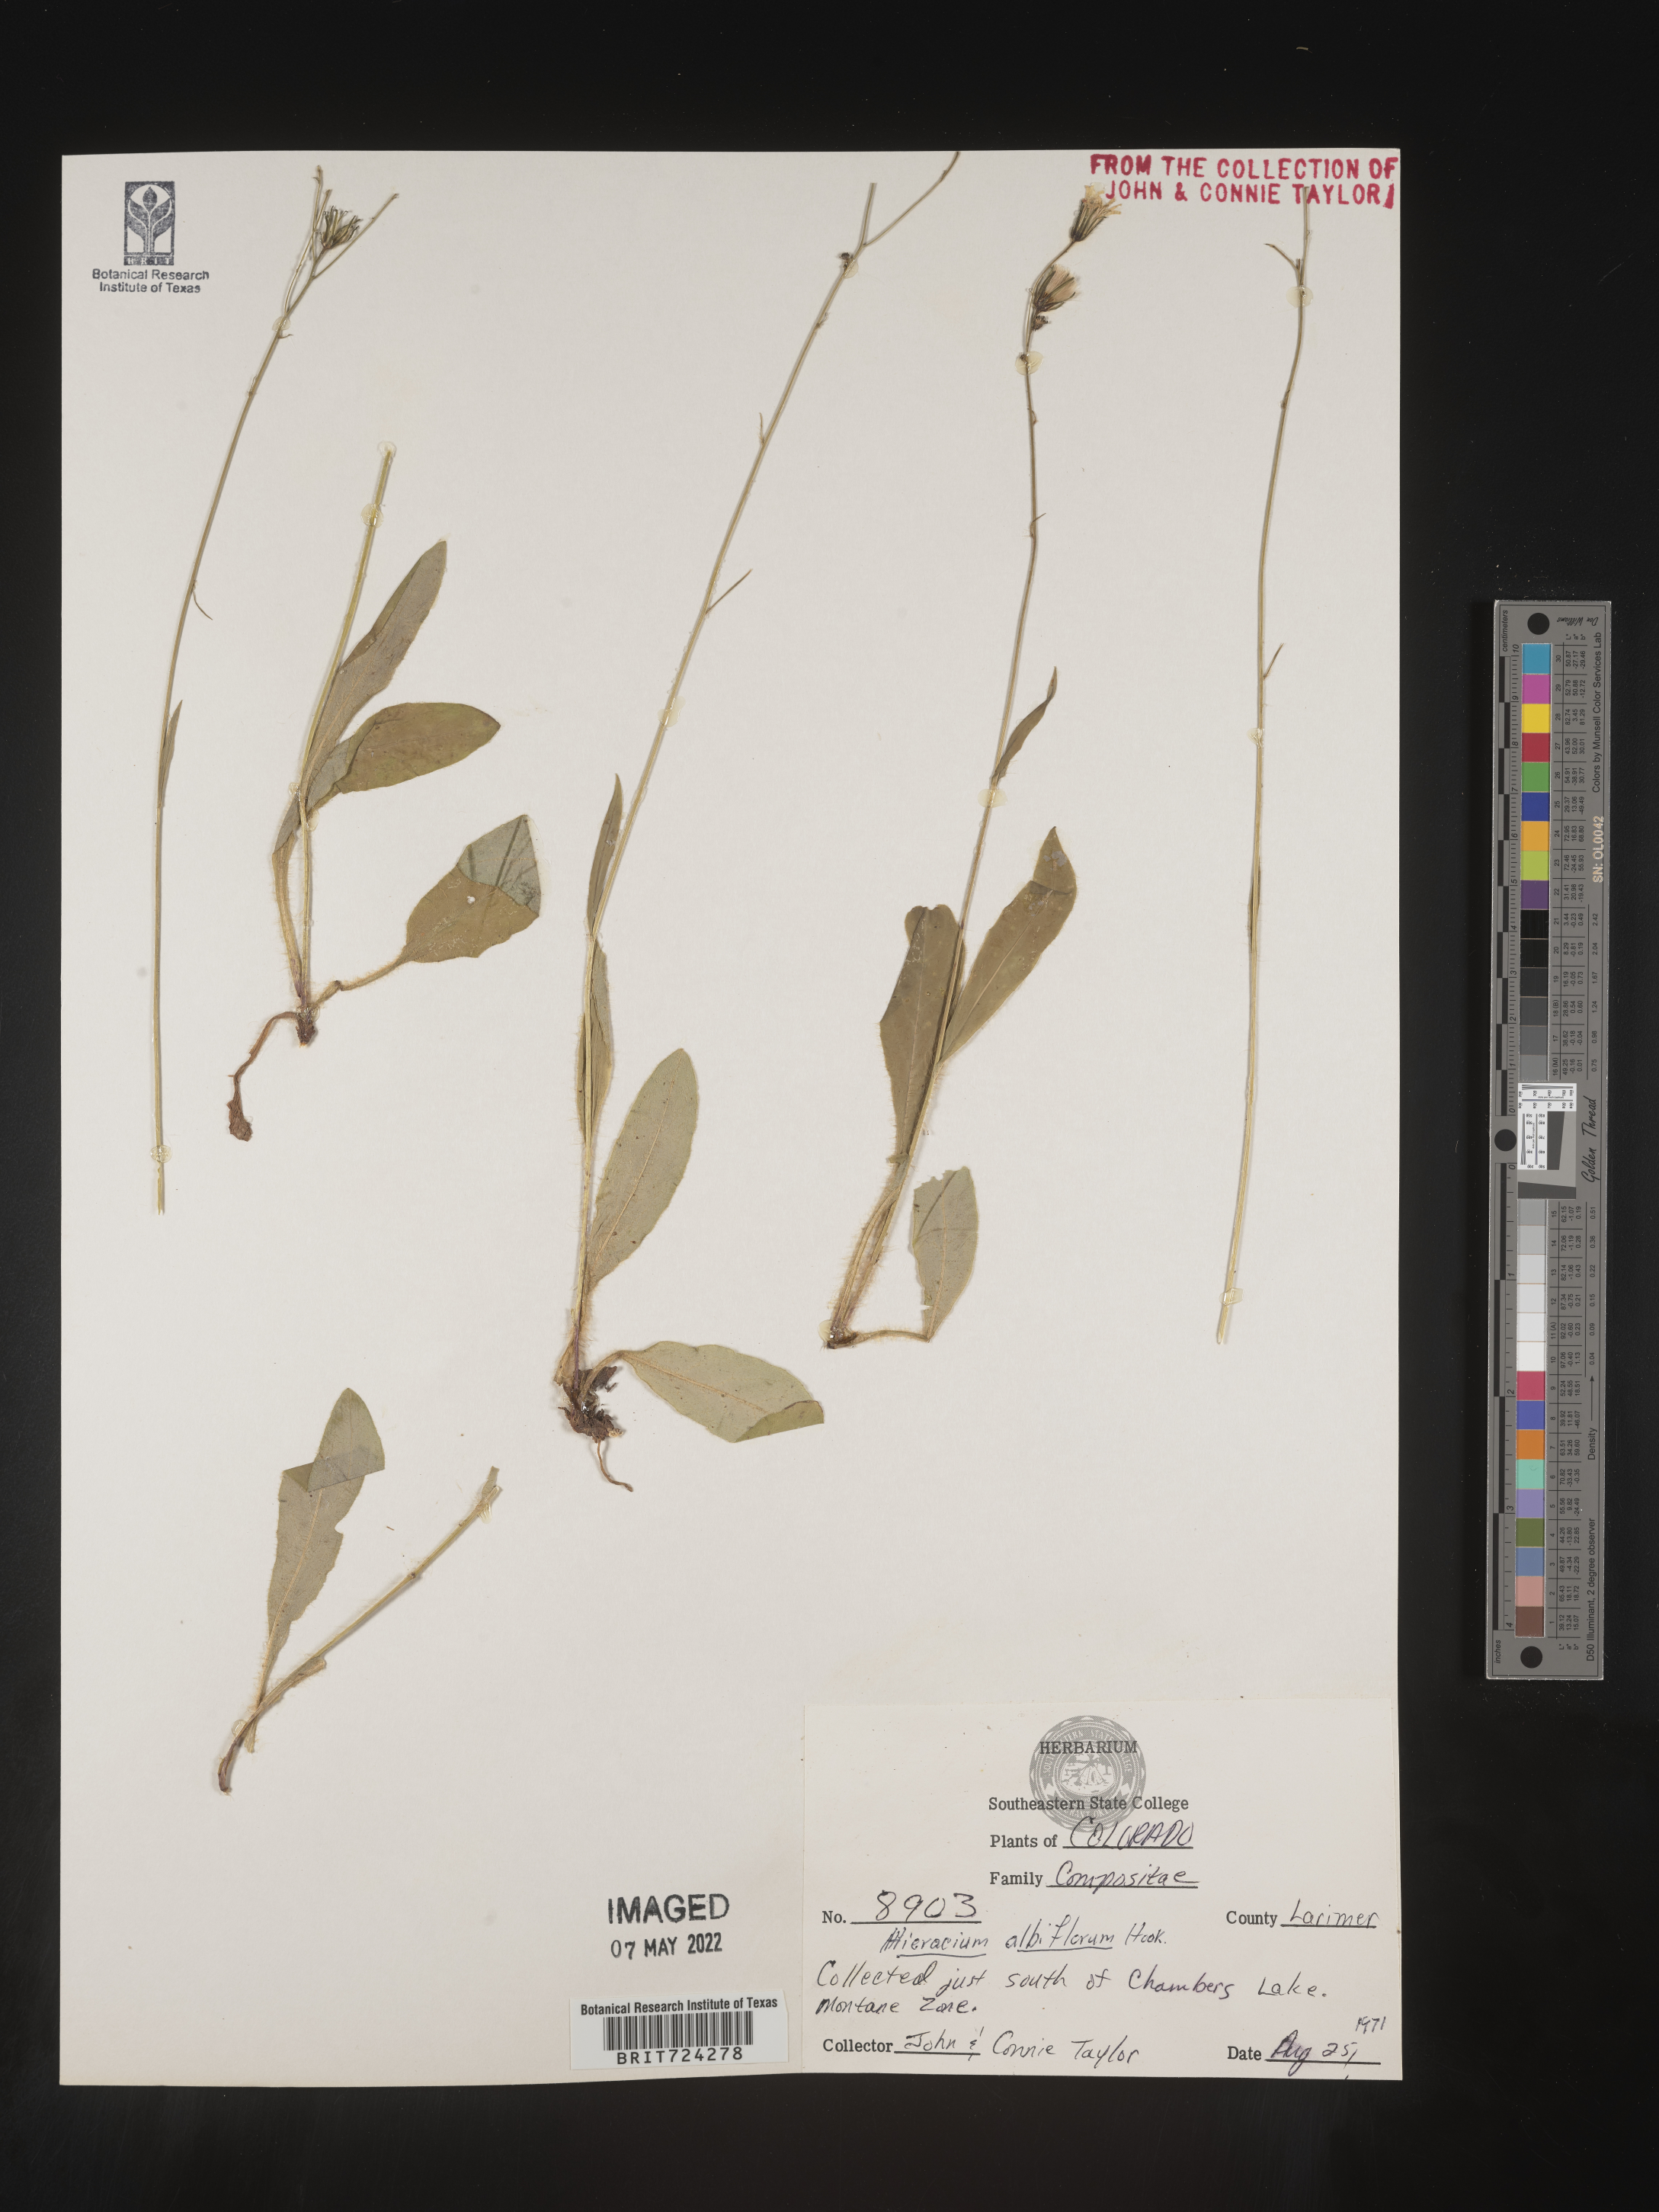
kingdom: Plantae
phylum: Tracheophyta
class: Magnoliopsida
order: Asterales
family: Asteraceae
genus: Hieracium
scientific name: Hieracium albiflorum
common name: White hawkweed
